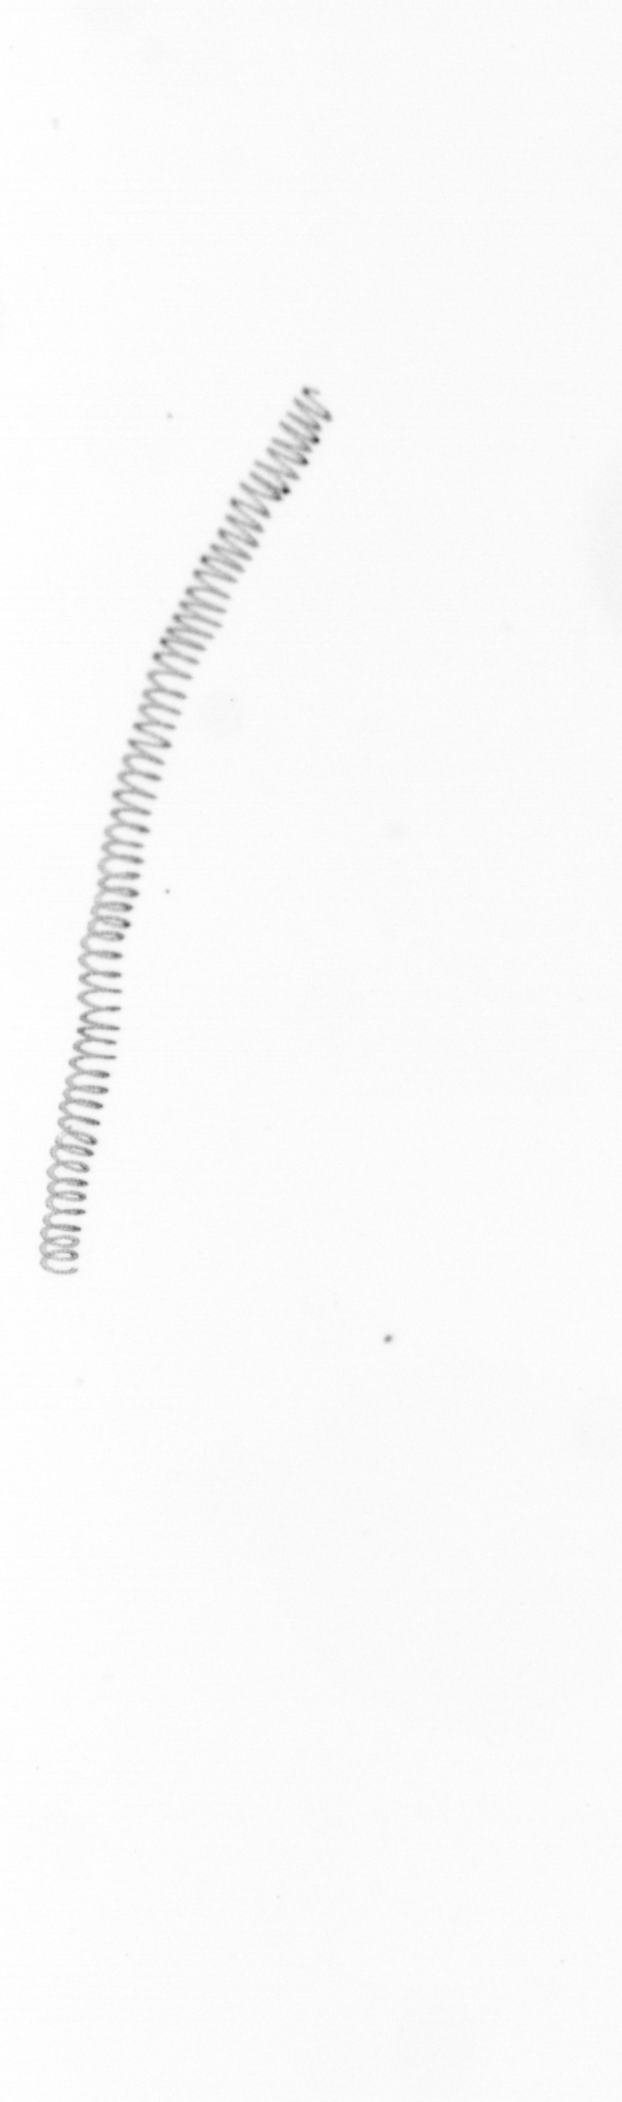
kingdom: Chromista
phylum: Ochrophyta
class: Bacillariophyceae
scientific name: Bacillariophyceae
